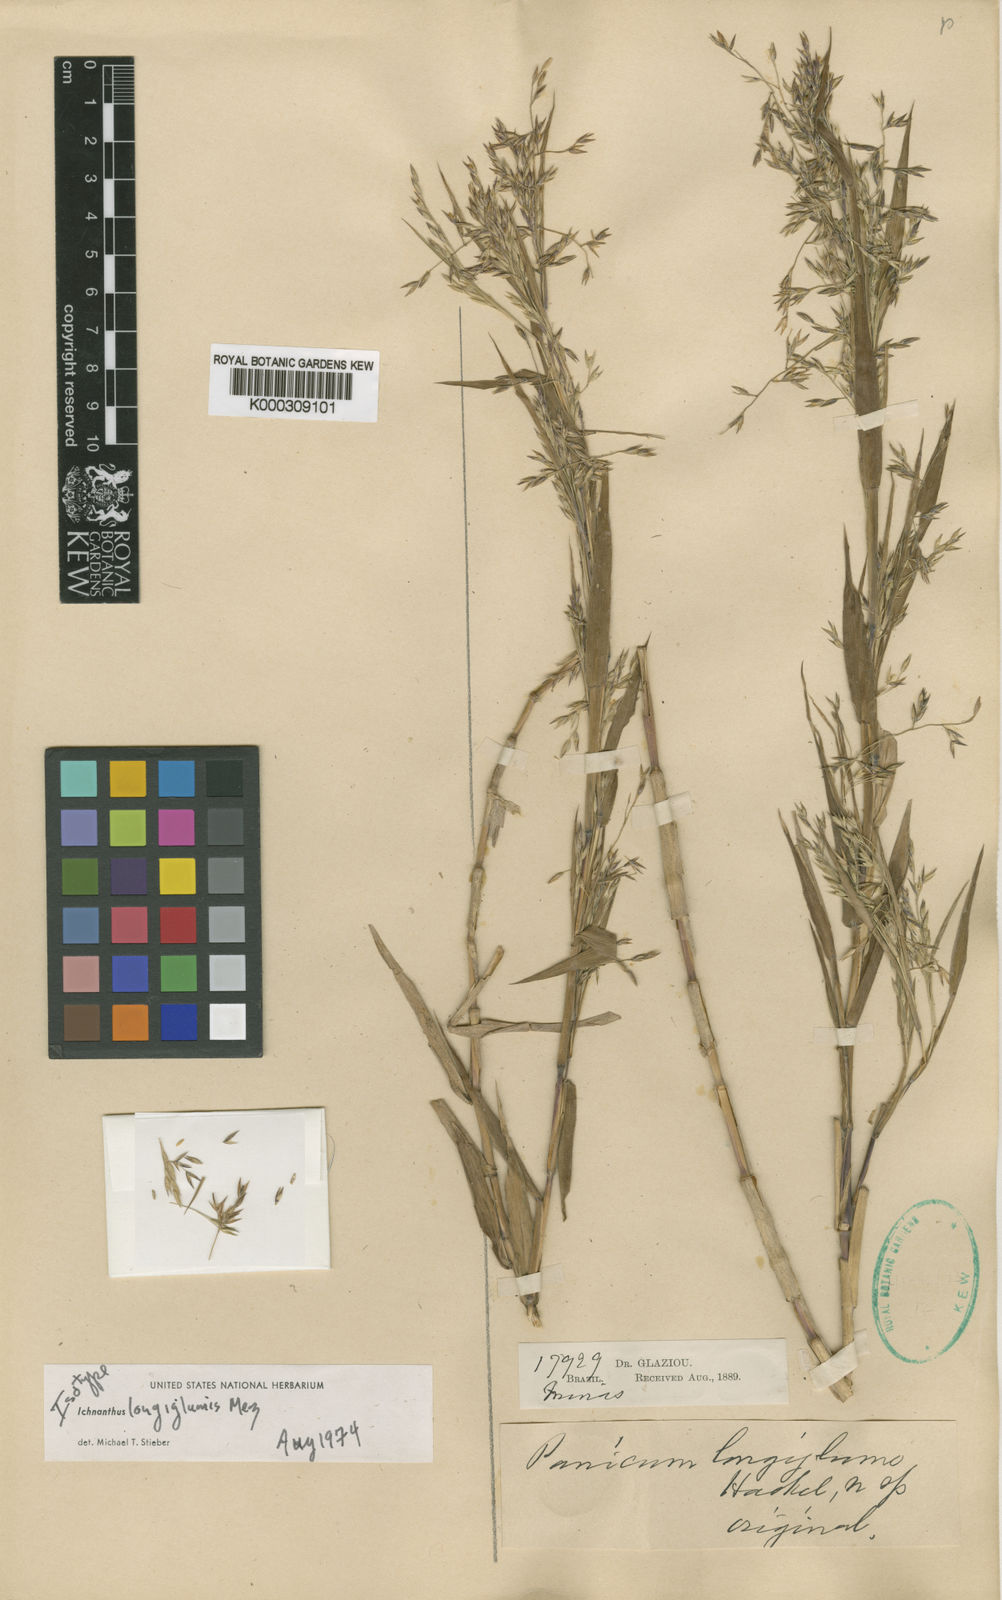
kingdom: Plantae
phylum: Tracheophyta
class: Liliopsida
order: Poales
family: Poaceae
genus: Ichnanthus
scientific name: Ichnanthus longiglumis
